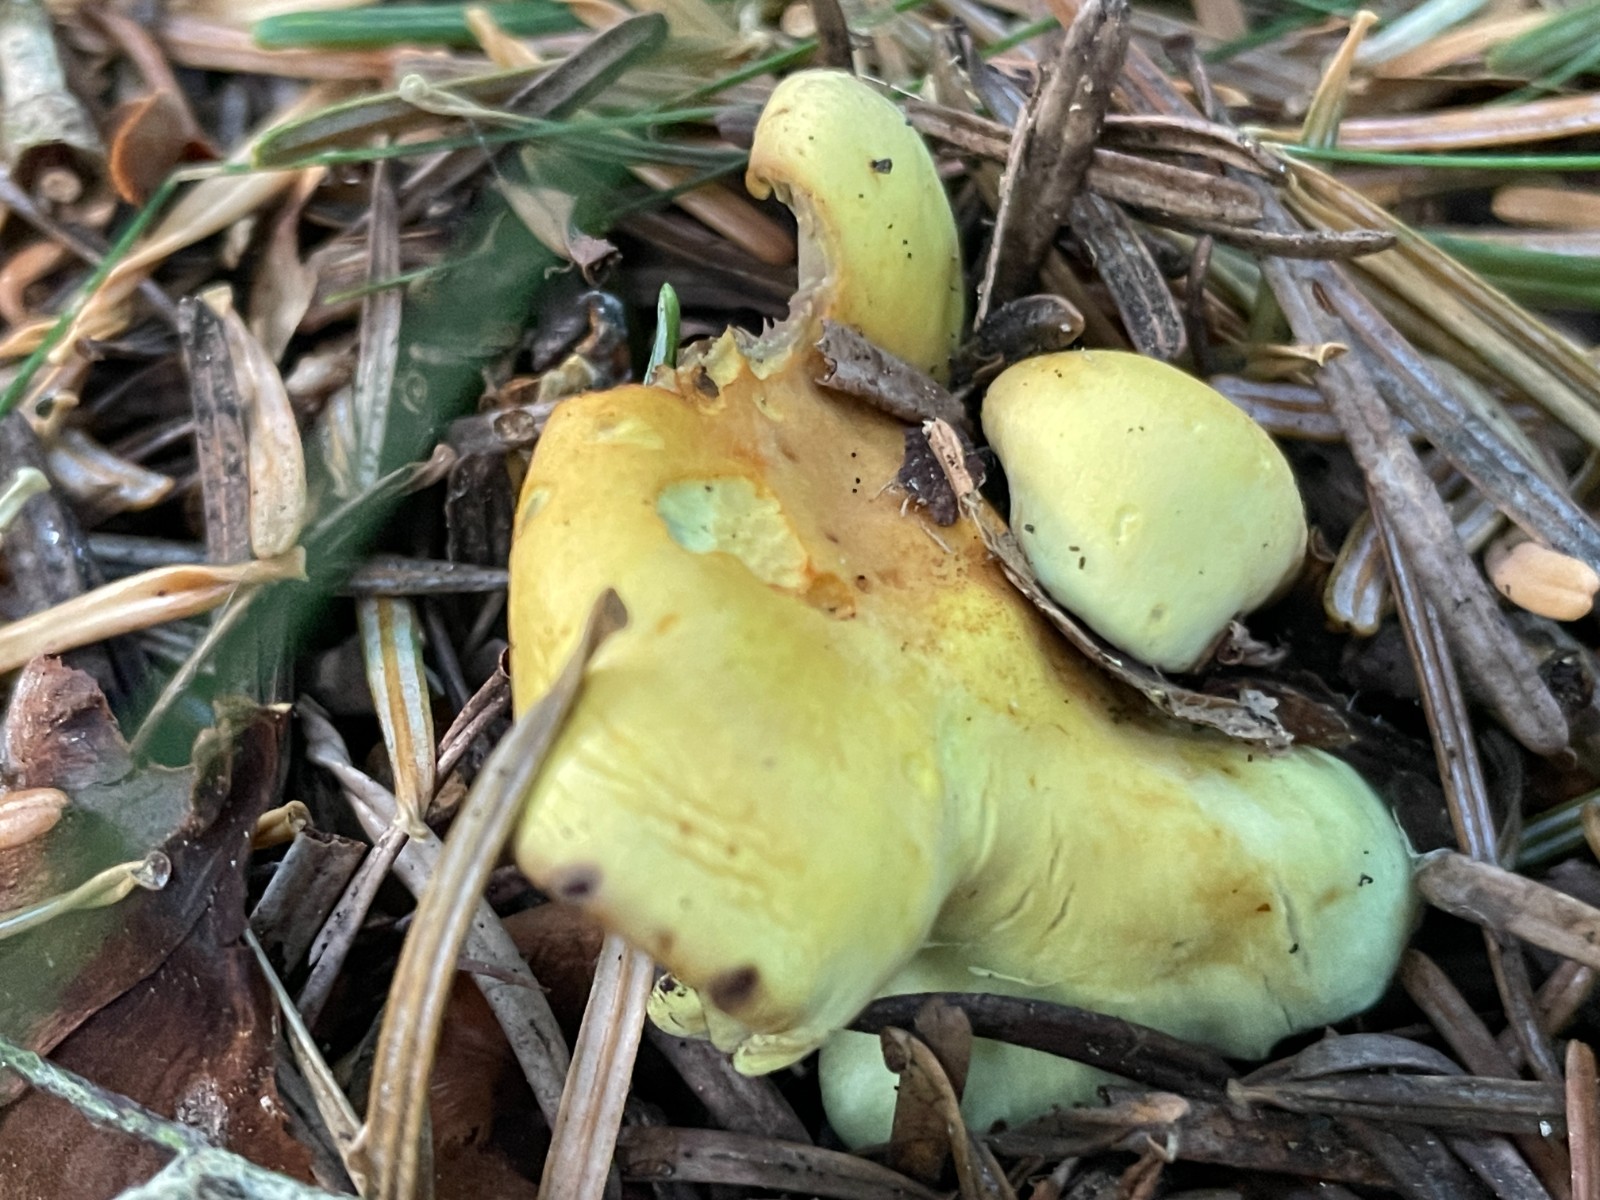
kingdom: Fungi
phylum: Basidiomycota
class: Agaricomycetes
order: Agaricales
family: Strophariaceae
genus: Hypholoma
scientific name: Hypholoma fasciculare
